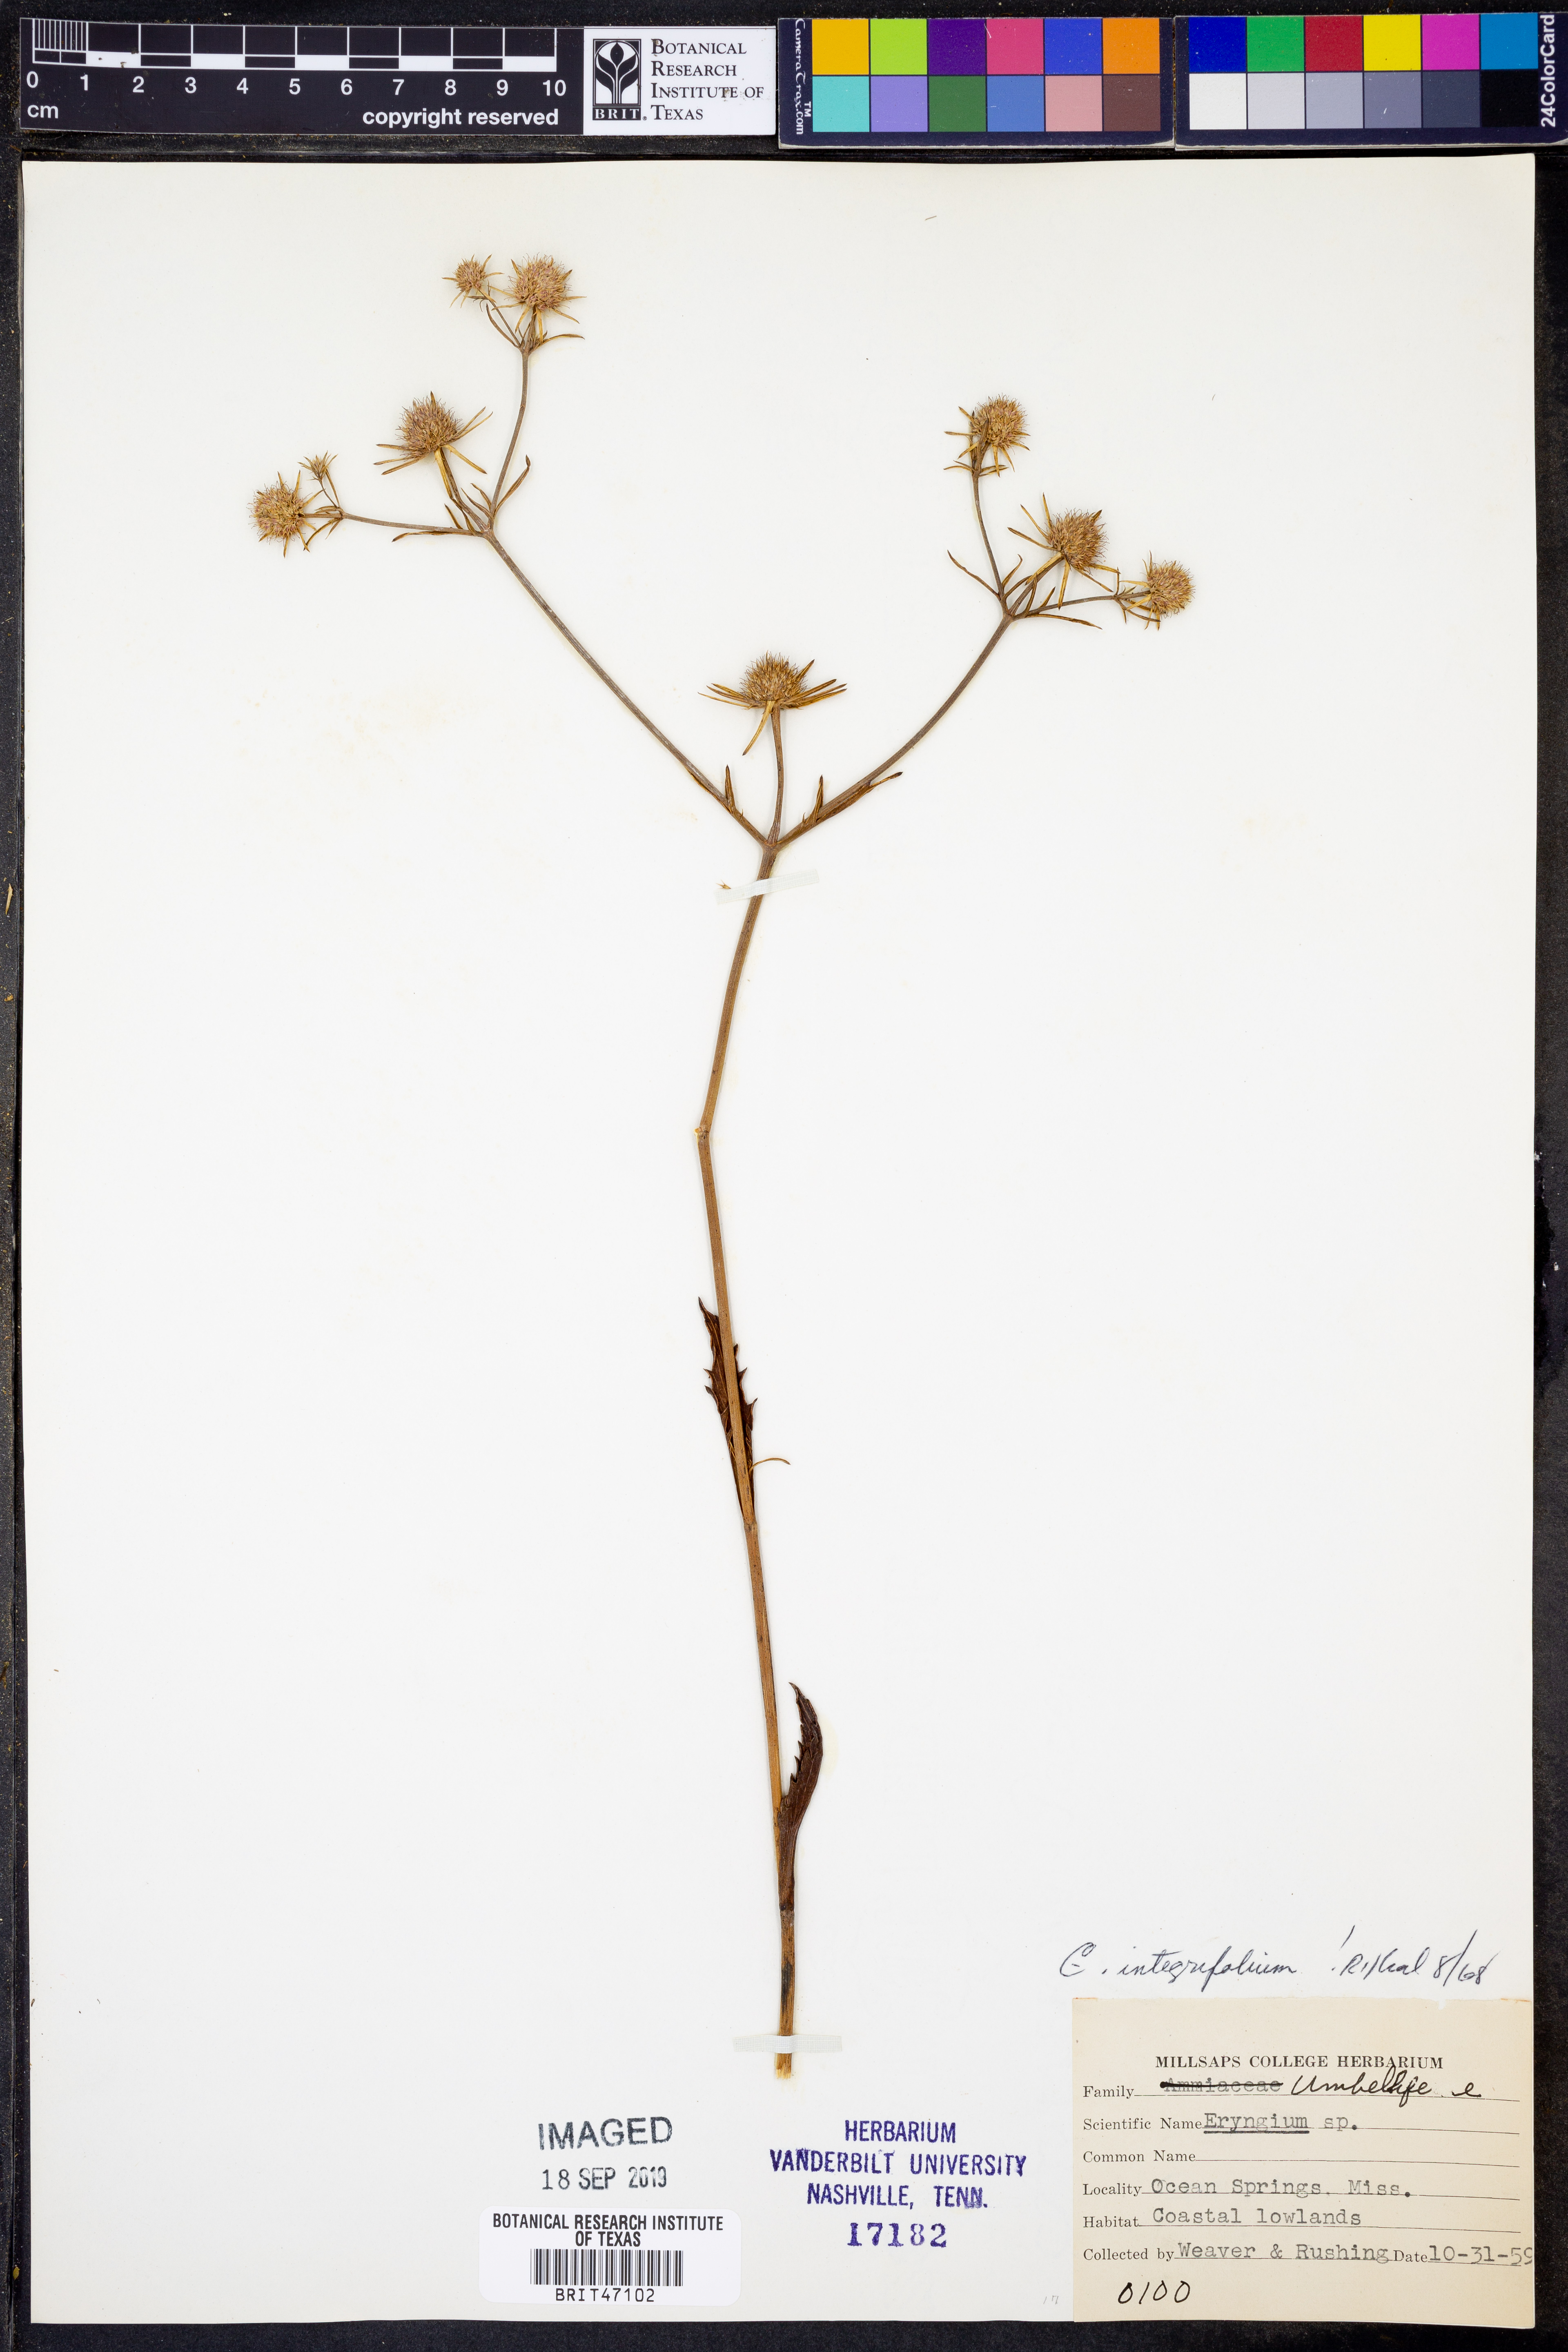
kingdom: Plantae
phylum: Tracheophyta
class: Magnoliopsida
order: Apiales
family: Apiaceae
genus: Eryngium
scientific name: Eryngium integrifolium
